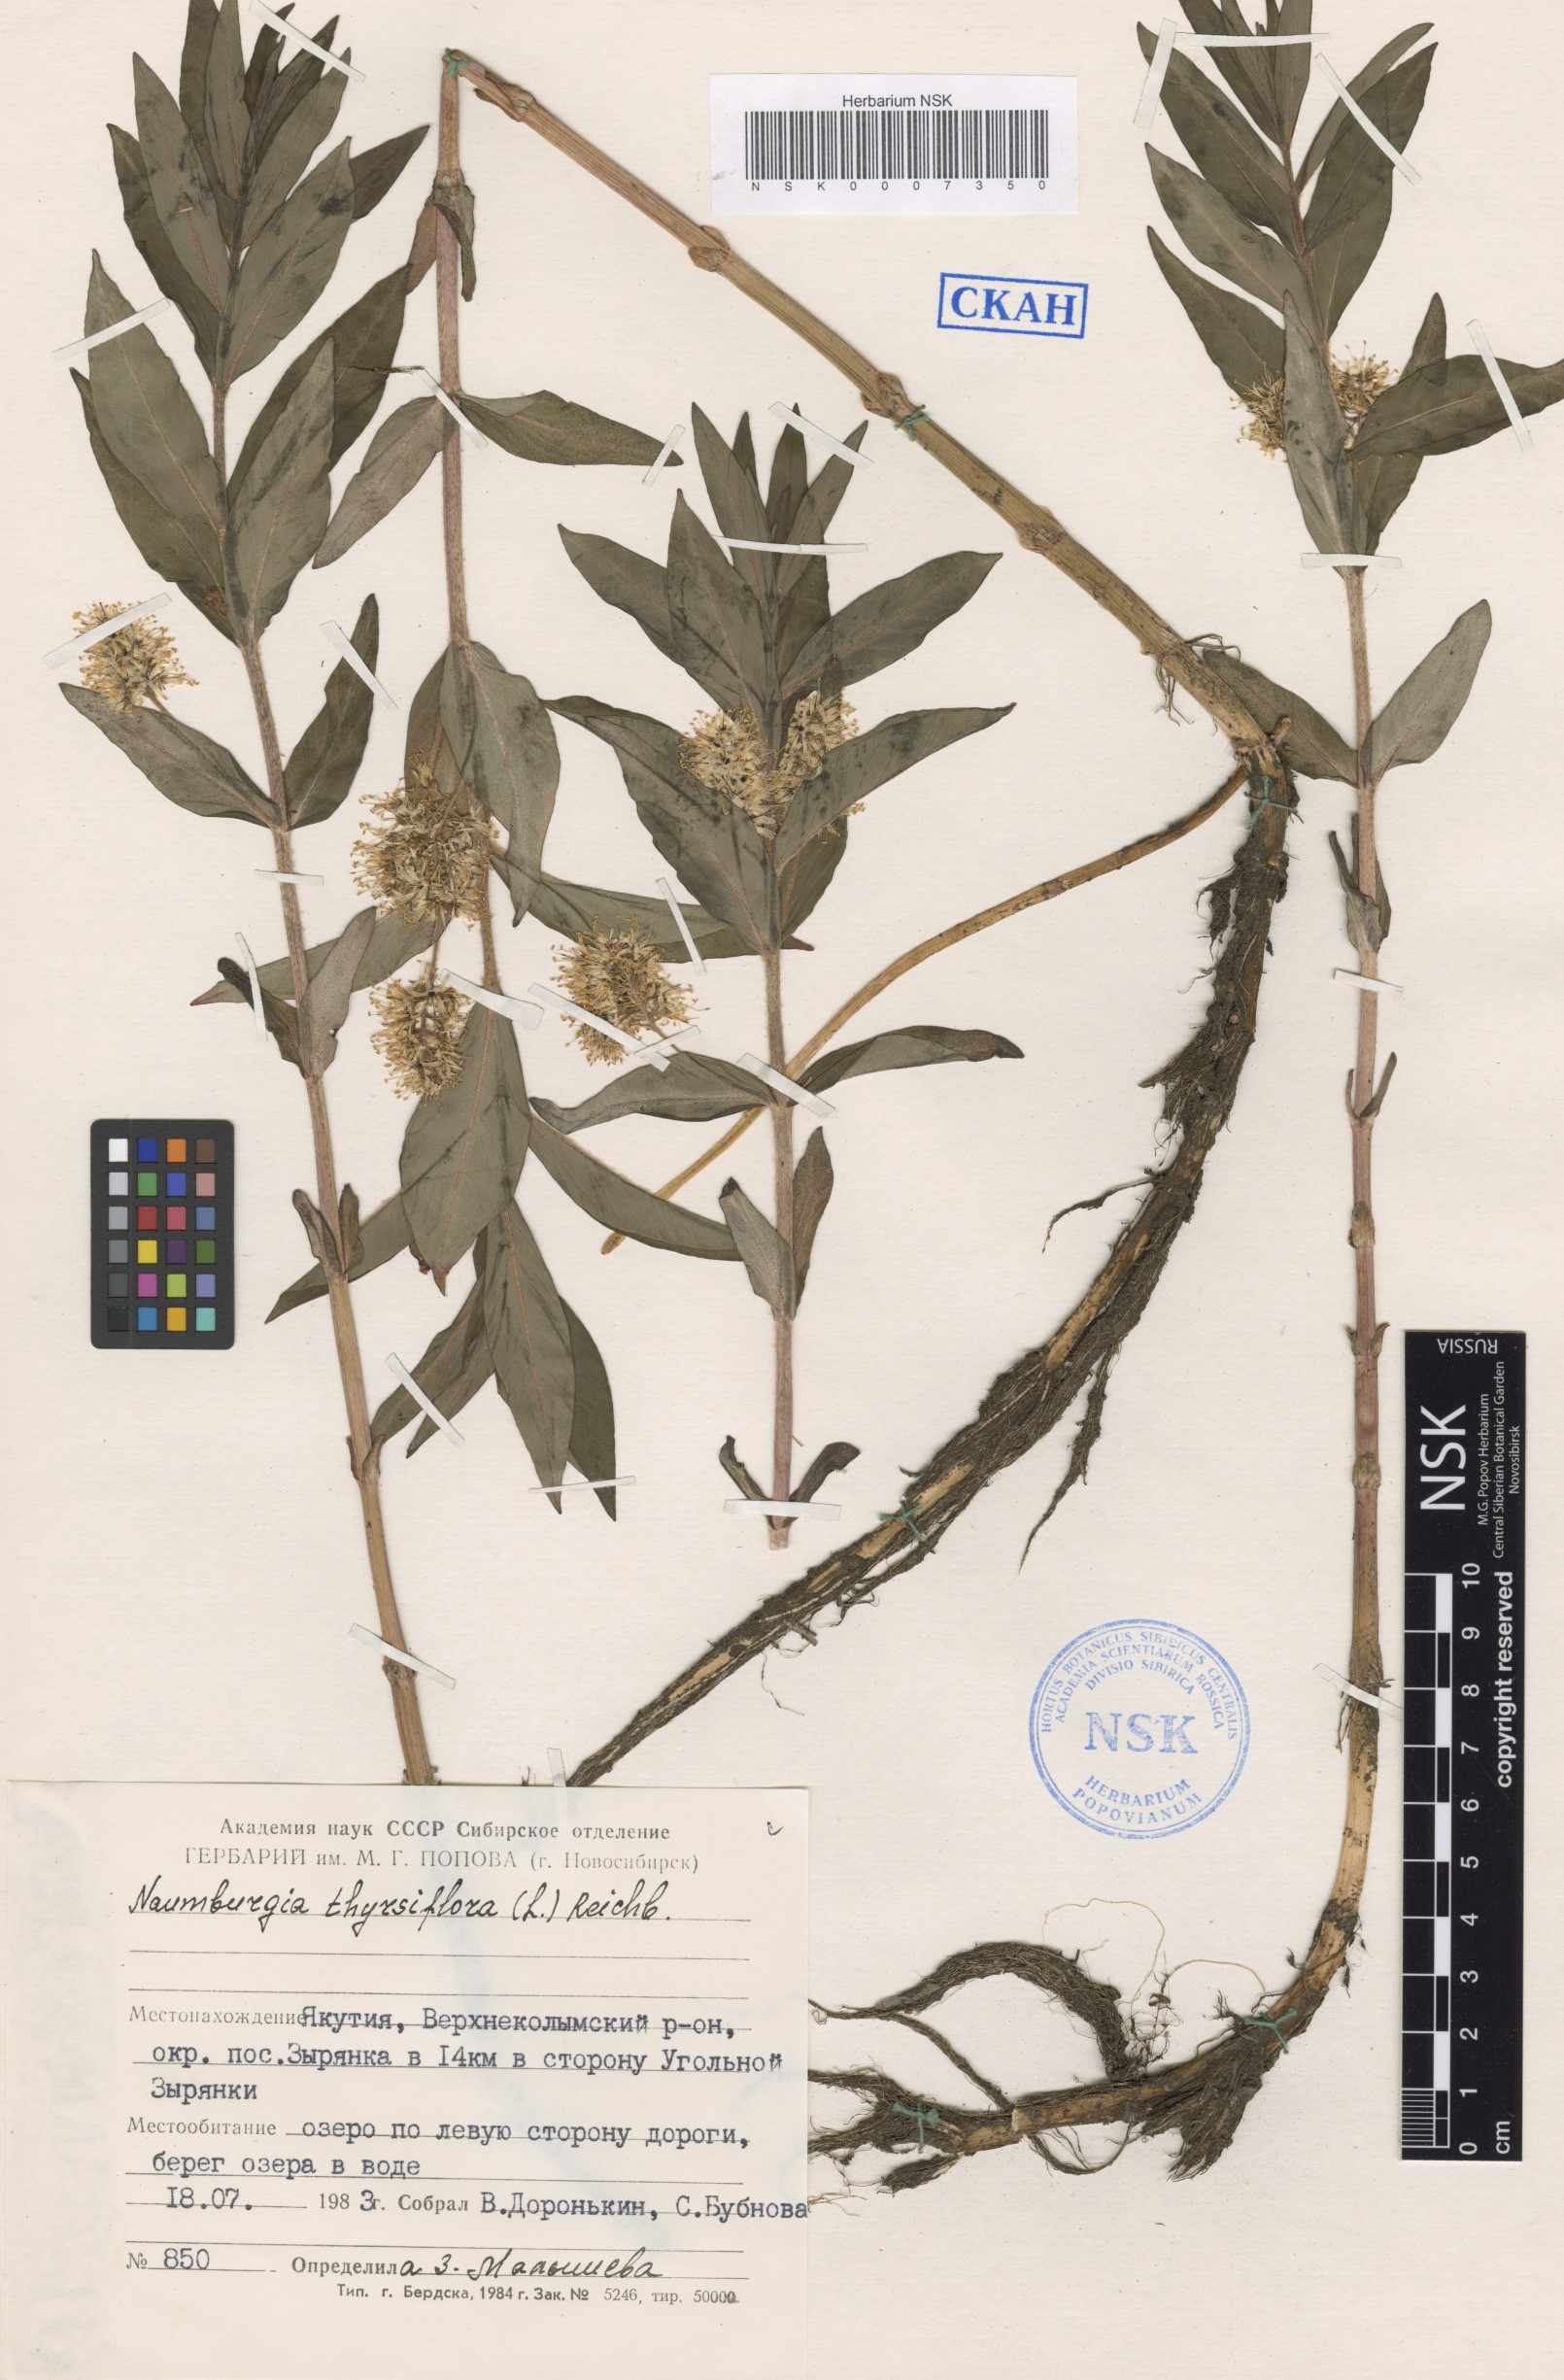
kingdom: Plantae
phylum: Tracheophyta
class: Magnoliopsida
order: Ericales
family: Primulaceae
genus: Lysimachia
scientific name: Lysimachia thyrsiflora
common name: Tufted loosestrife
